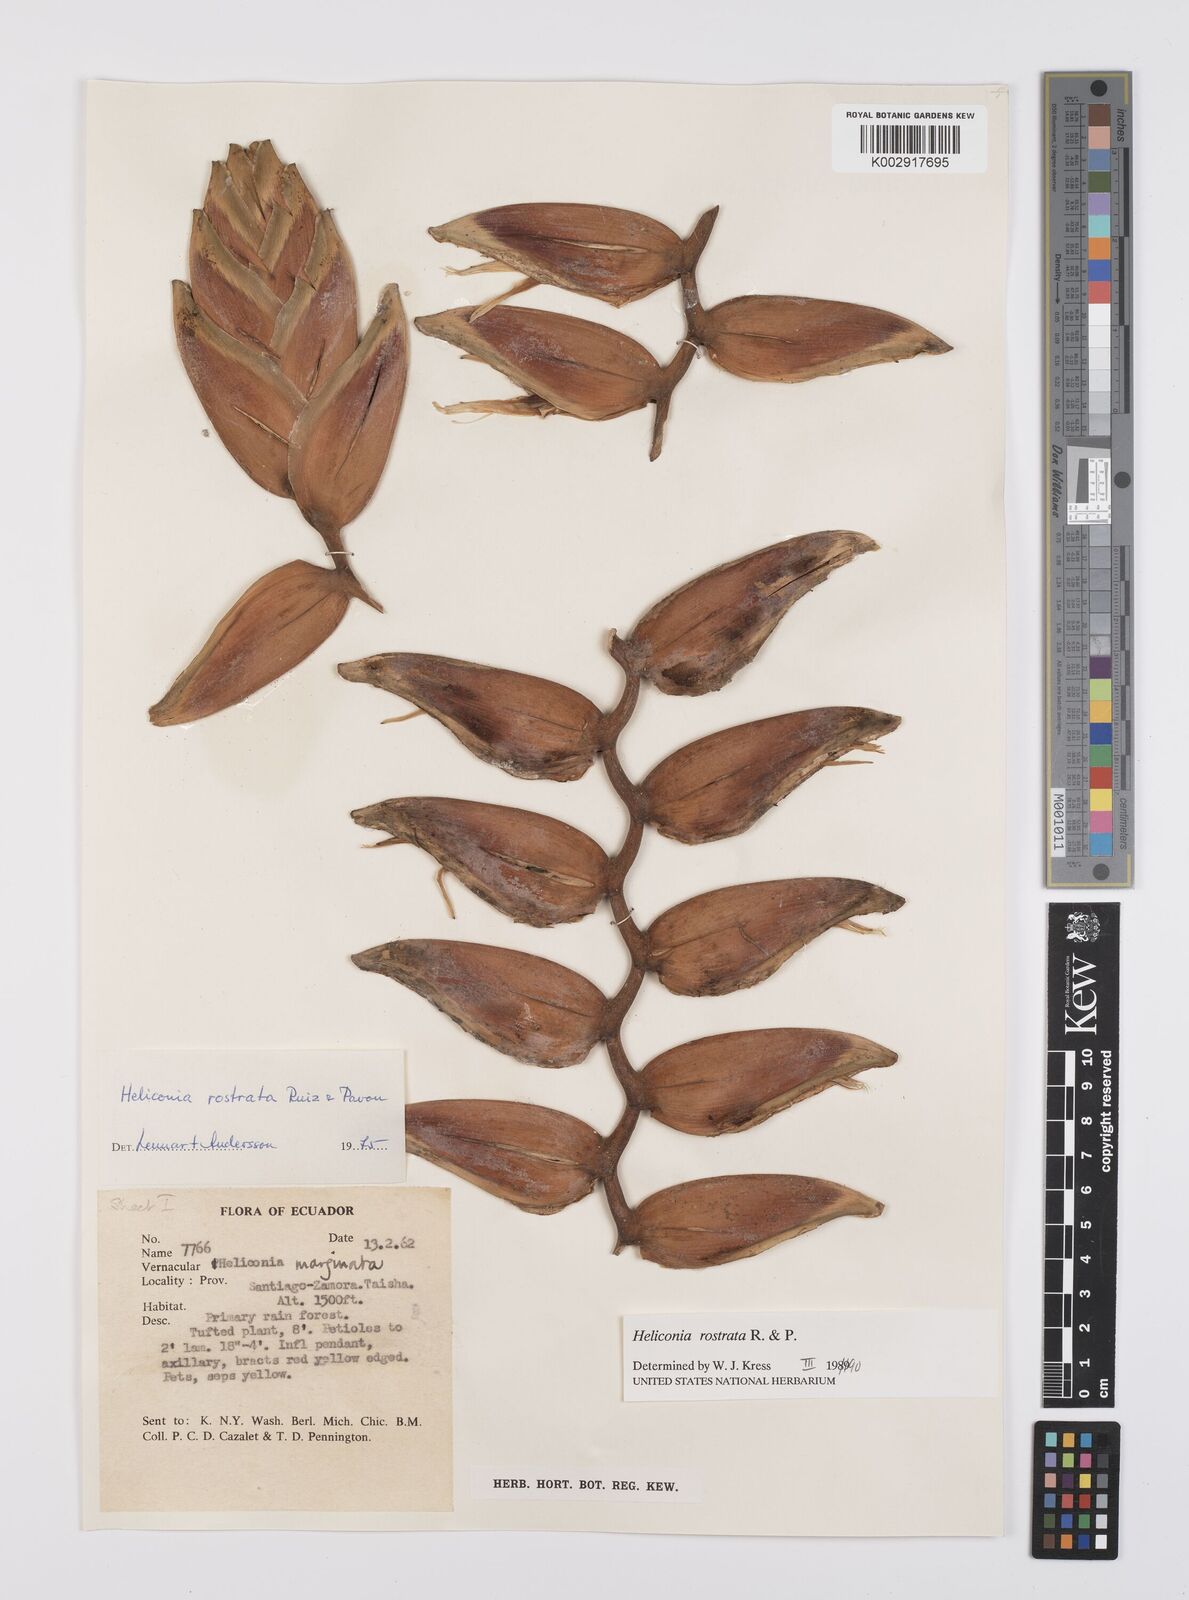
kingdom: Plantae
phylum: Tracheophyta
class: Liliopsida
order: Zingiberales
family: Heliconiaceae
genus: Heliconia
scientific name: Heliconia rostrata
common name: False bird of paradise
